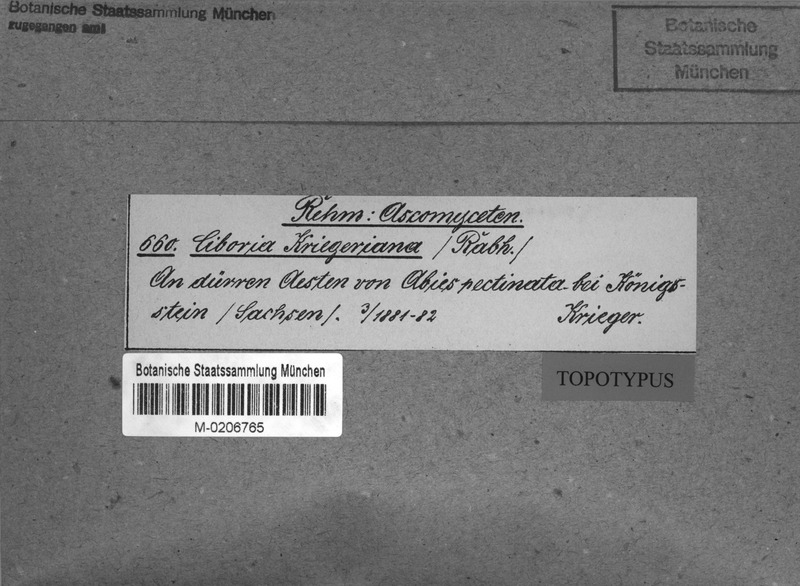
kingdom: Fungi
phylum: Ascomycota
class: Leotiomycetes
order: Helotiales
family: Rutstroemiaceae
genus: Rutstroemia
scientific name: Rutstroemia elatina
